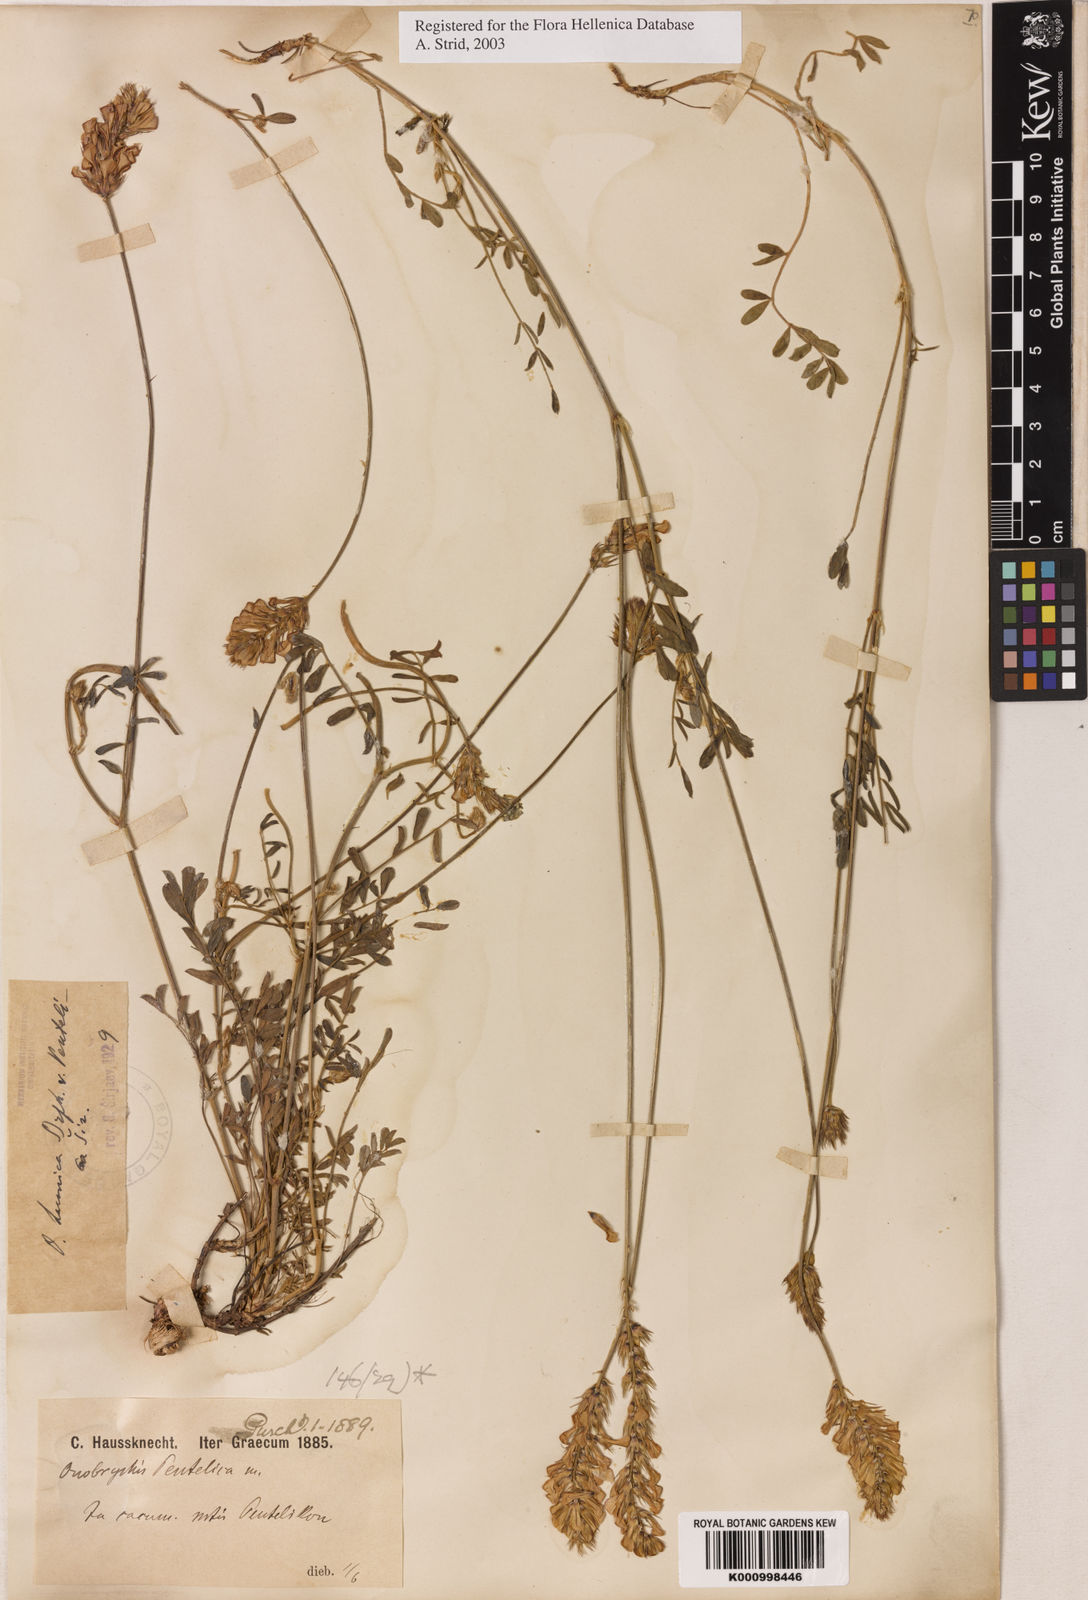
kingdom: Plantae
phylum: Tracheophyta
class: Magnoliopsida
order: Fabales
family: Fabaceae
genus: Onobrychis
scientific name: Onobrychis alba
